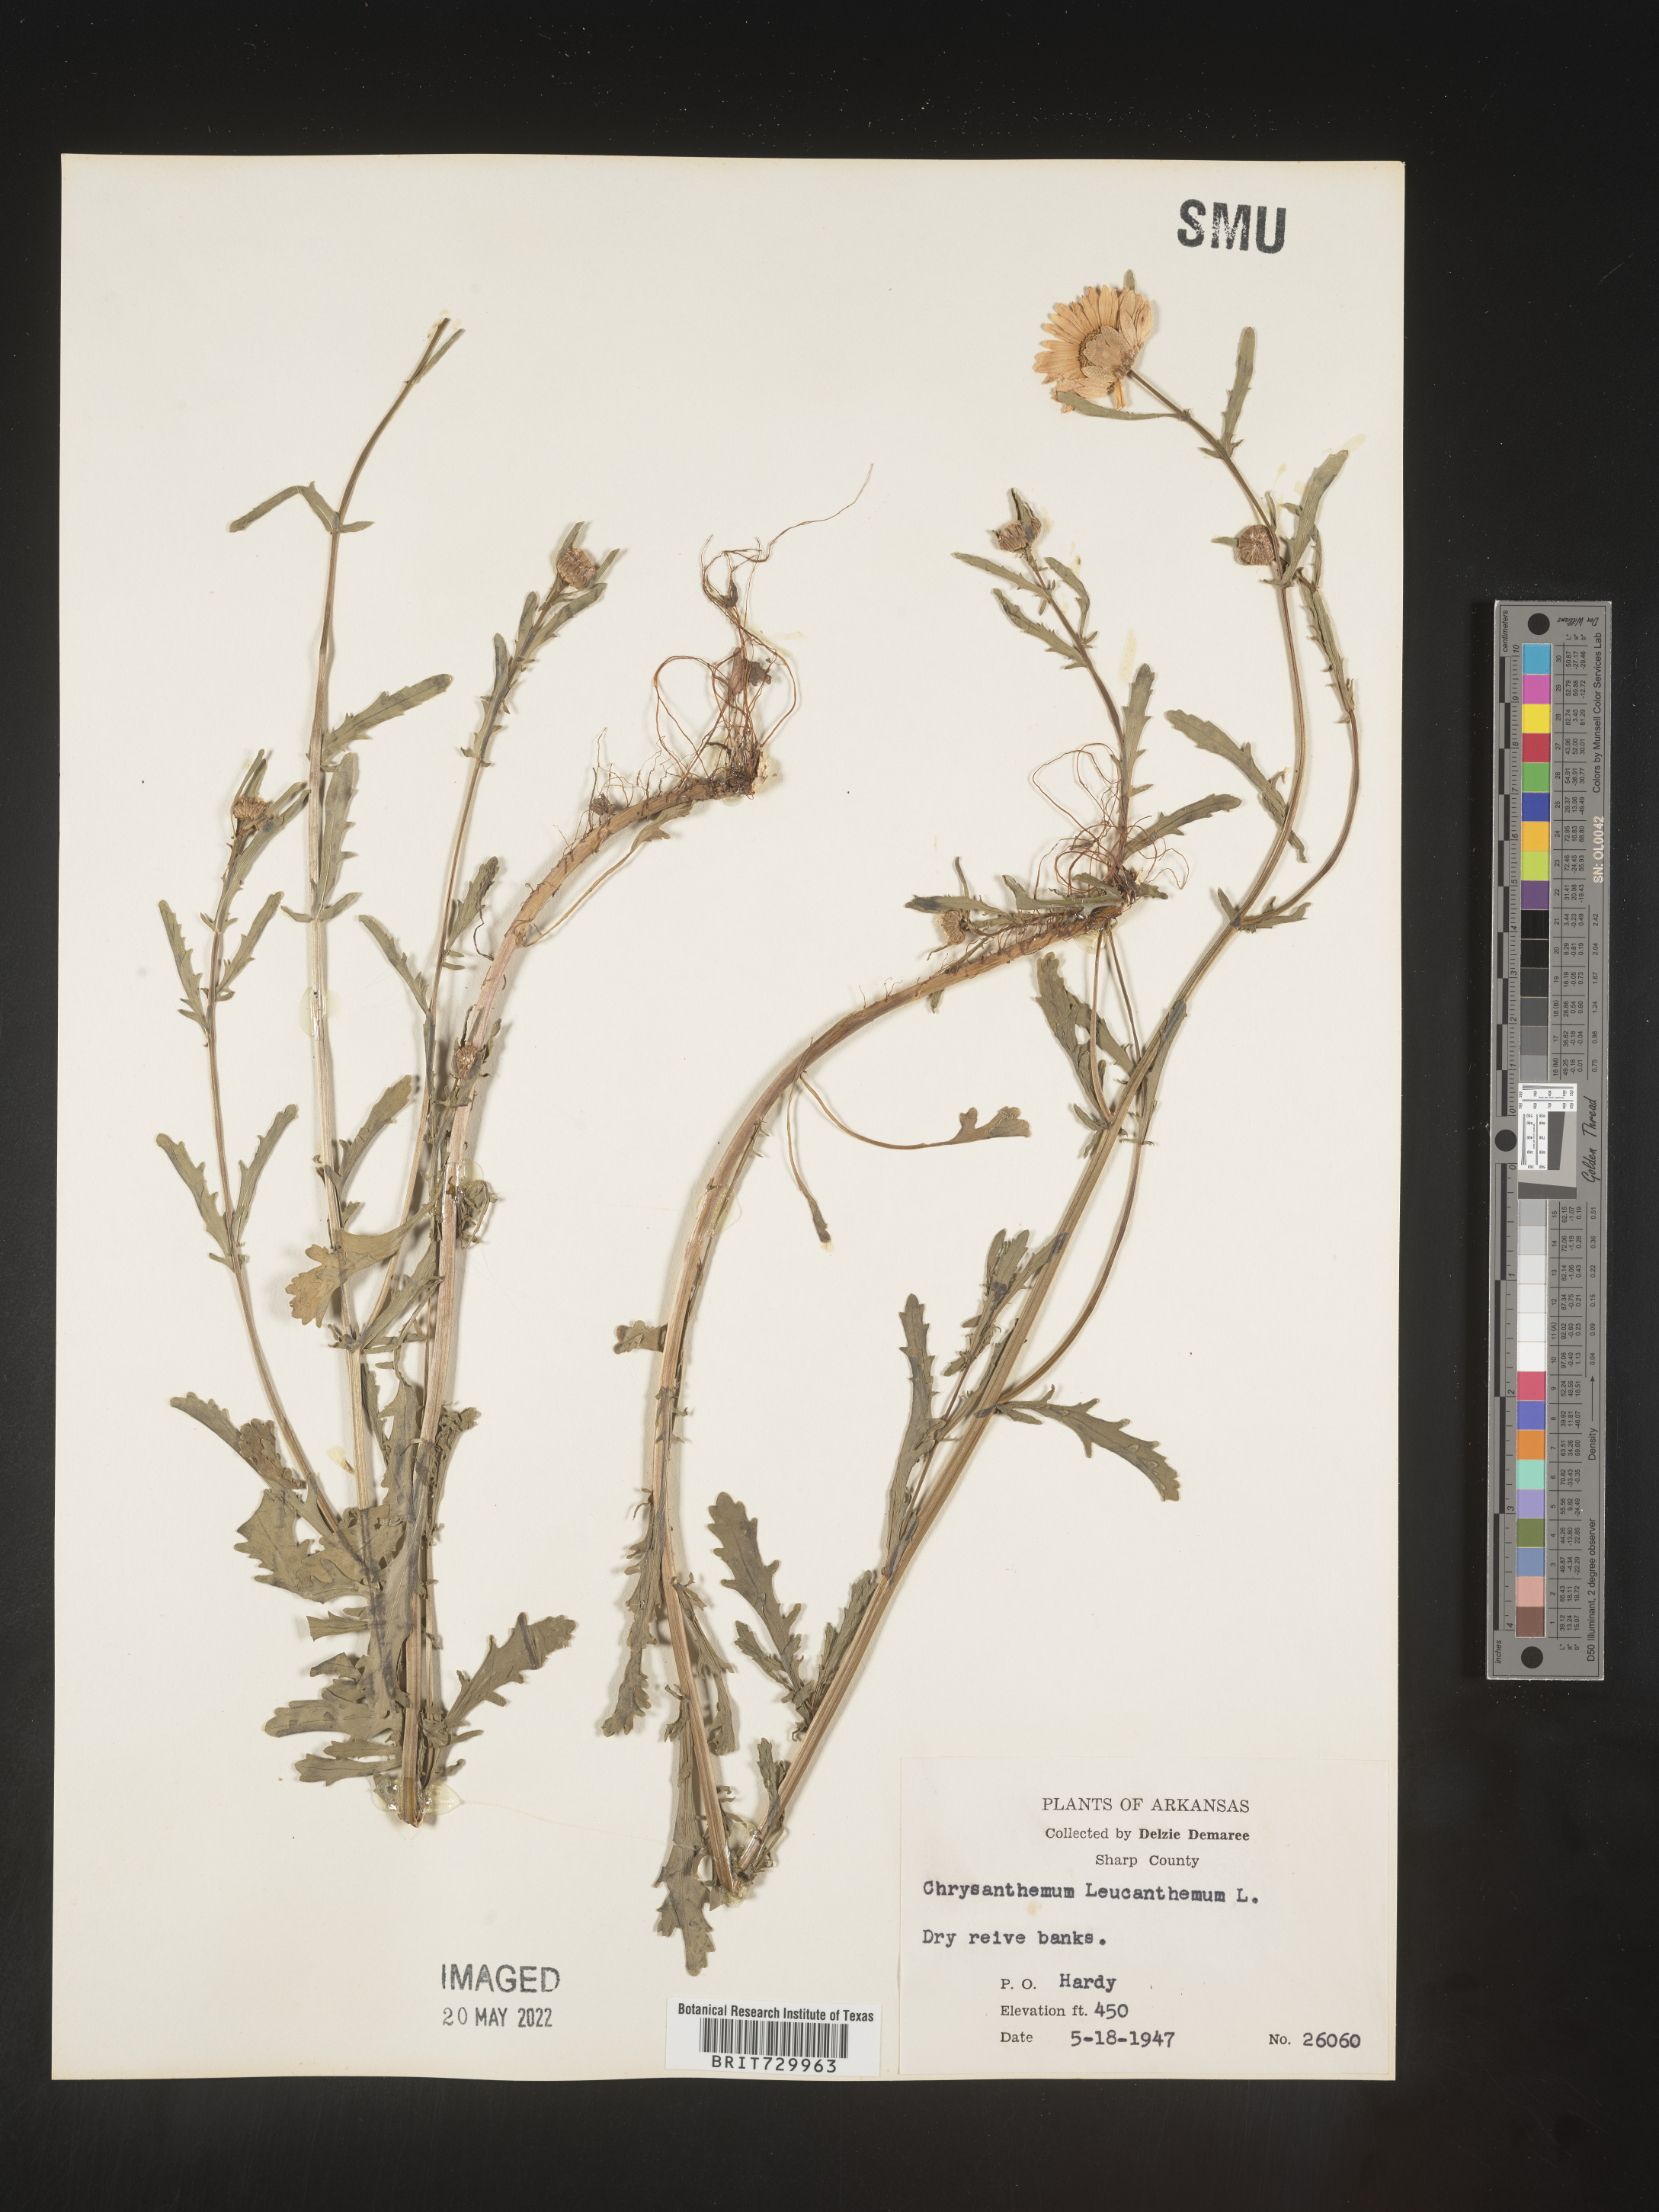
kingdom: Plantae
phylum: Tracheophyta
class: Magnoliopsida
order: Asterales
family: Asteraceae
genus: Leucanthemum
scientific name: Leucanthemum vulgare
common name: Oxeye daisy
